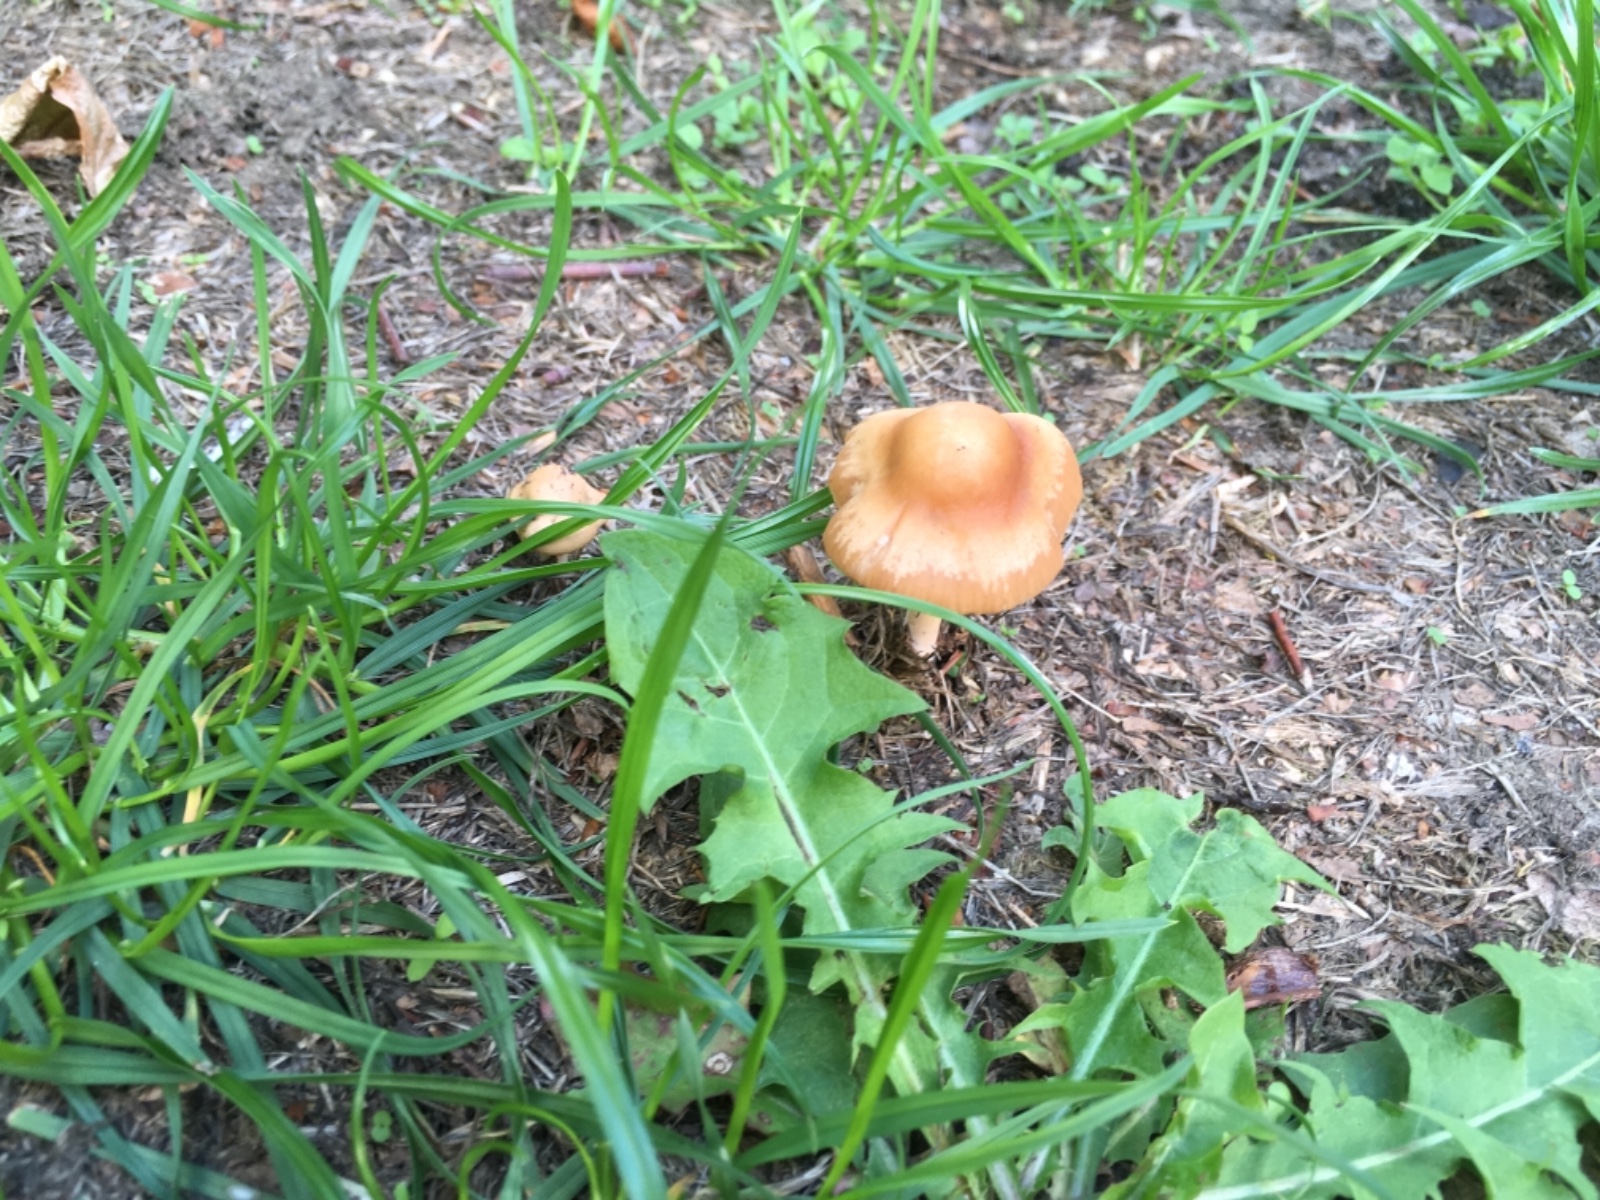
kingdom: Fungi
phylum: Basidiomycota
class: Agaricomycetes
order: Agaricales
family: Marasmiaceae
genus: Marasmius
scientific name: Marasmius oreades
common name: elledans-bruskhat
